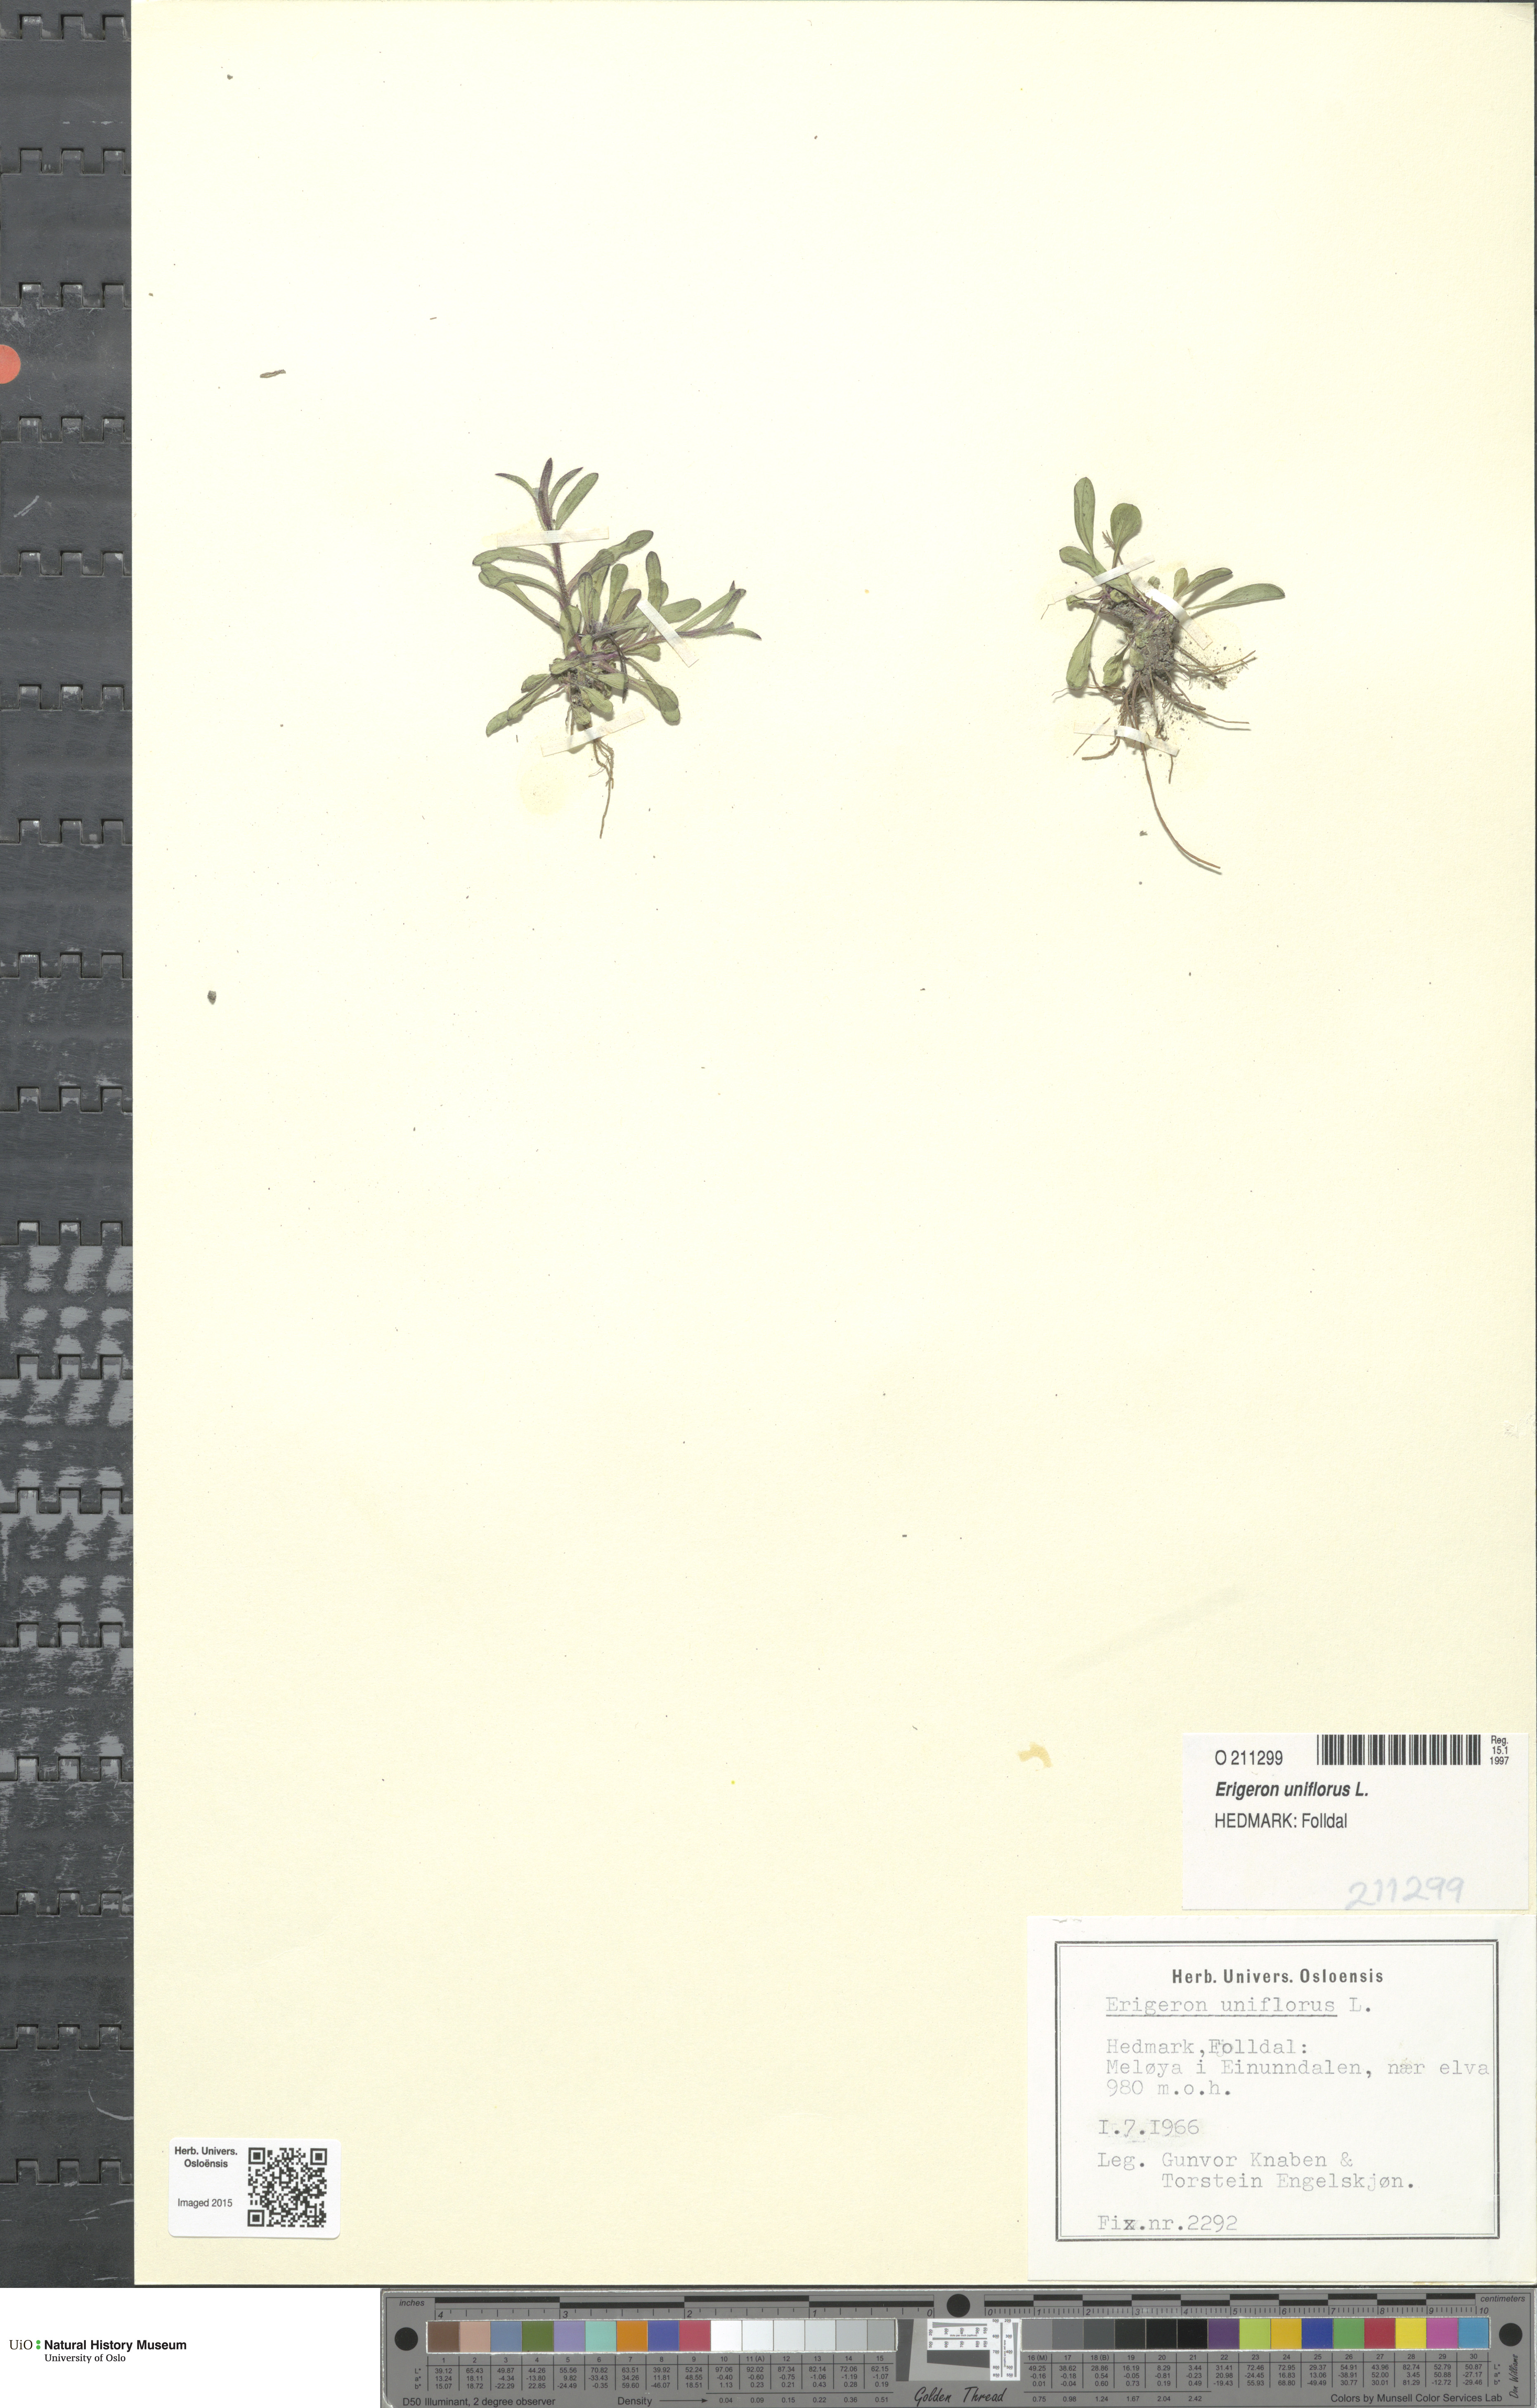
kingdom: Plantae
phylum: Tracheophyta
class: Magnoliopsida
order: Asterales
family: Asteraceae
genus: Erigeron
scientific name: Erigeron uniflorus
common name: Northern daisy
